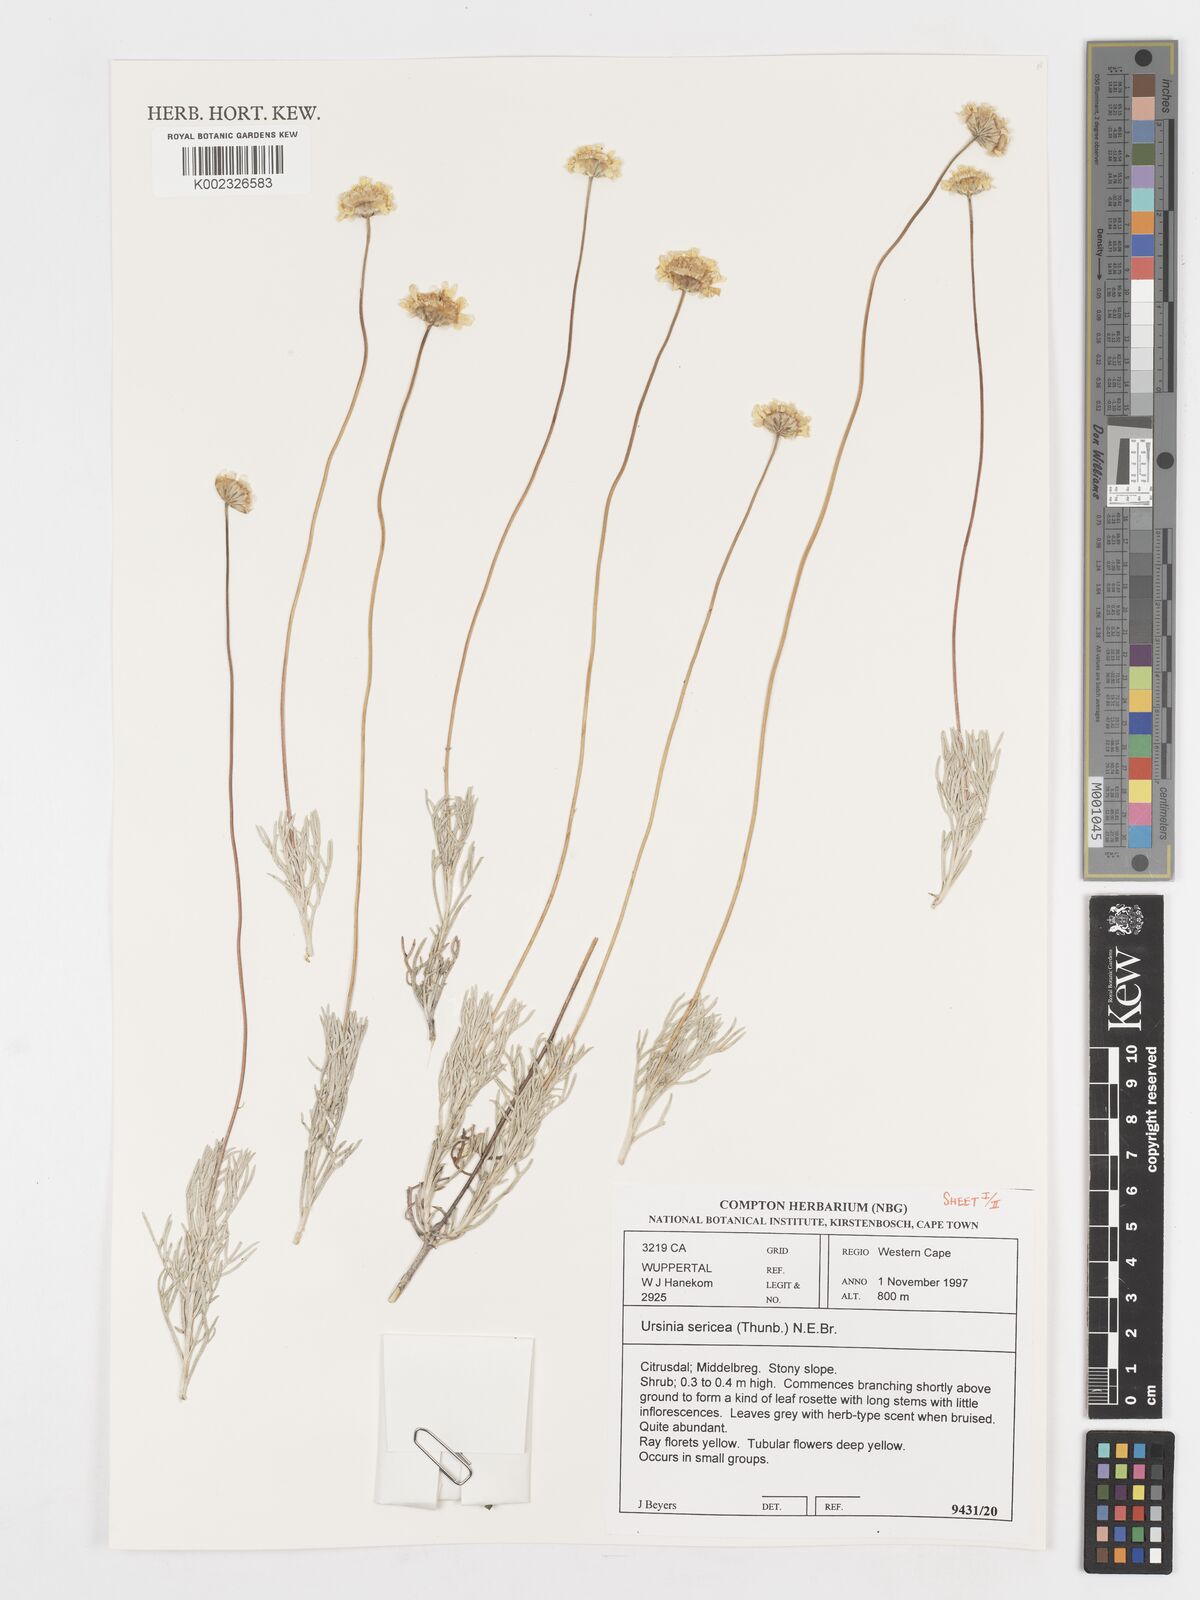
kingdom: Plantae
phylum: Tracheophyta
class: Magnoliopsida
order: Asterales
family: Asteraceae
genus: Ursinia
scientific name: Ursinia sericea
